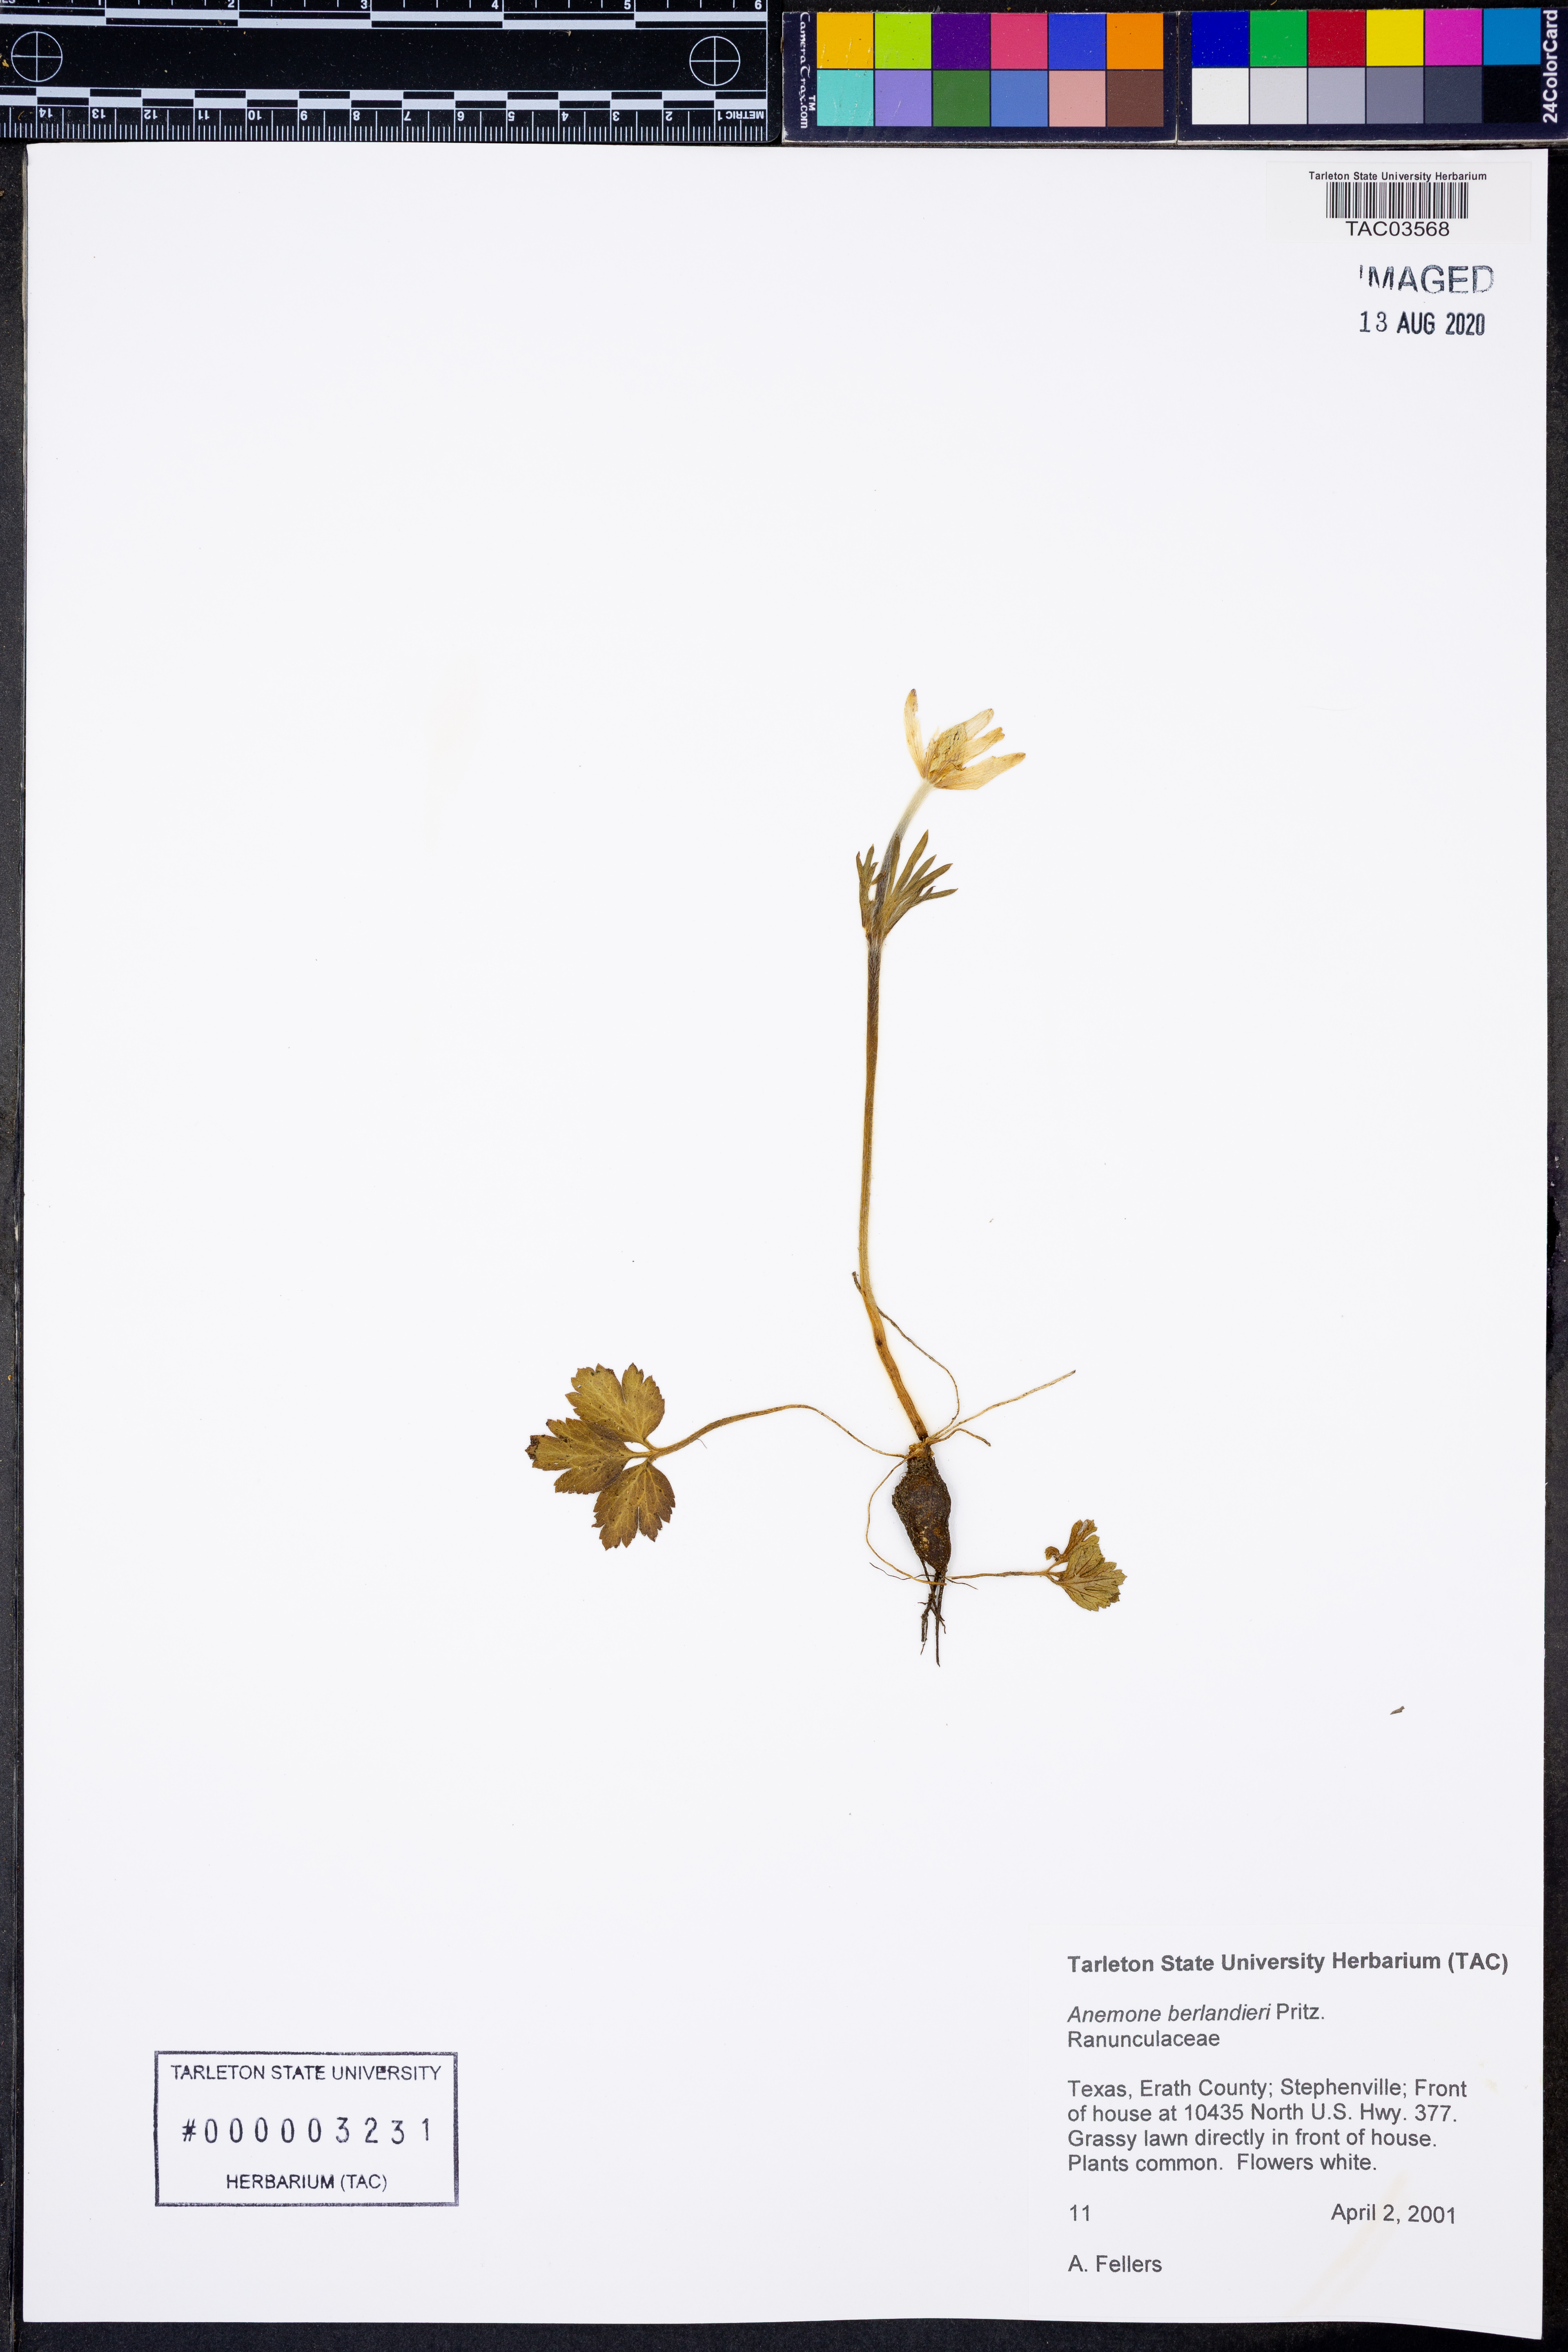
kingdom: Plantae
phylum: Tracheophyta
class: Magnoliopsida
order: Ranunculales
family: Ranunculaceae
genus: Anemone
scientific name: Anemone berlandieri
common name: Ten-petal anemone
